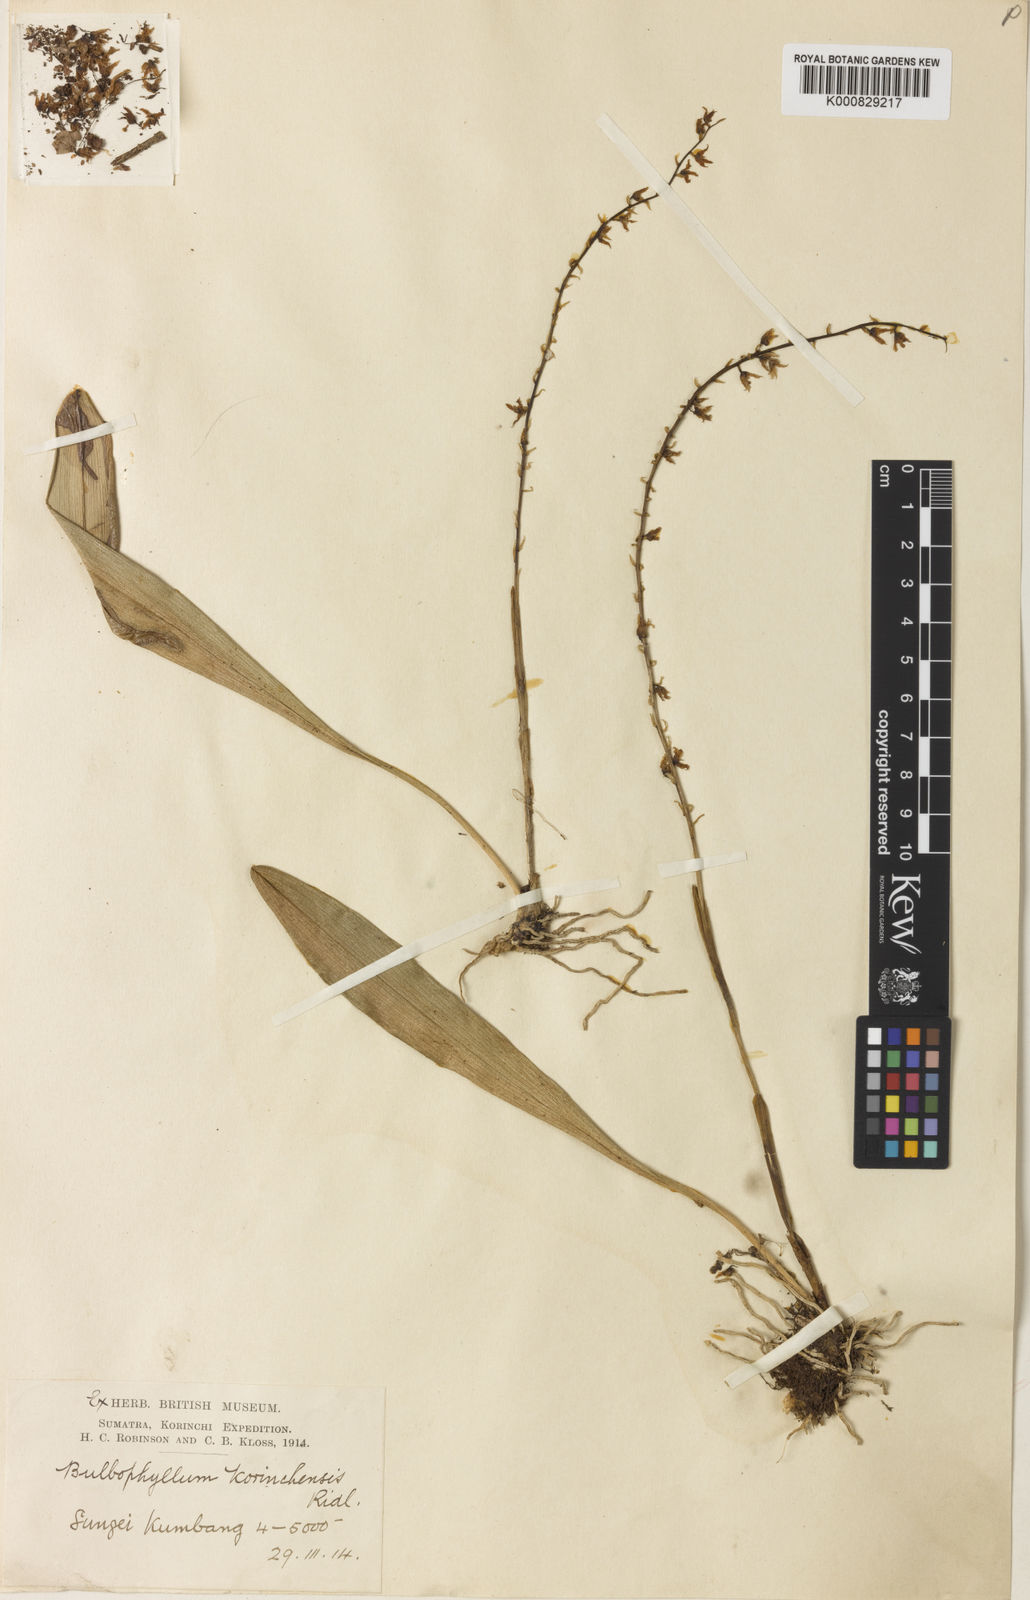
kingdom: Plantae
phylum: Tracheophyta
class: Liliopsida
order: Asparagales
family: Orchidaceae
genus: Bulbophyllum
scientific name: Bulbophyllum korinchense
